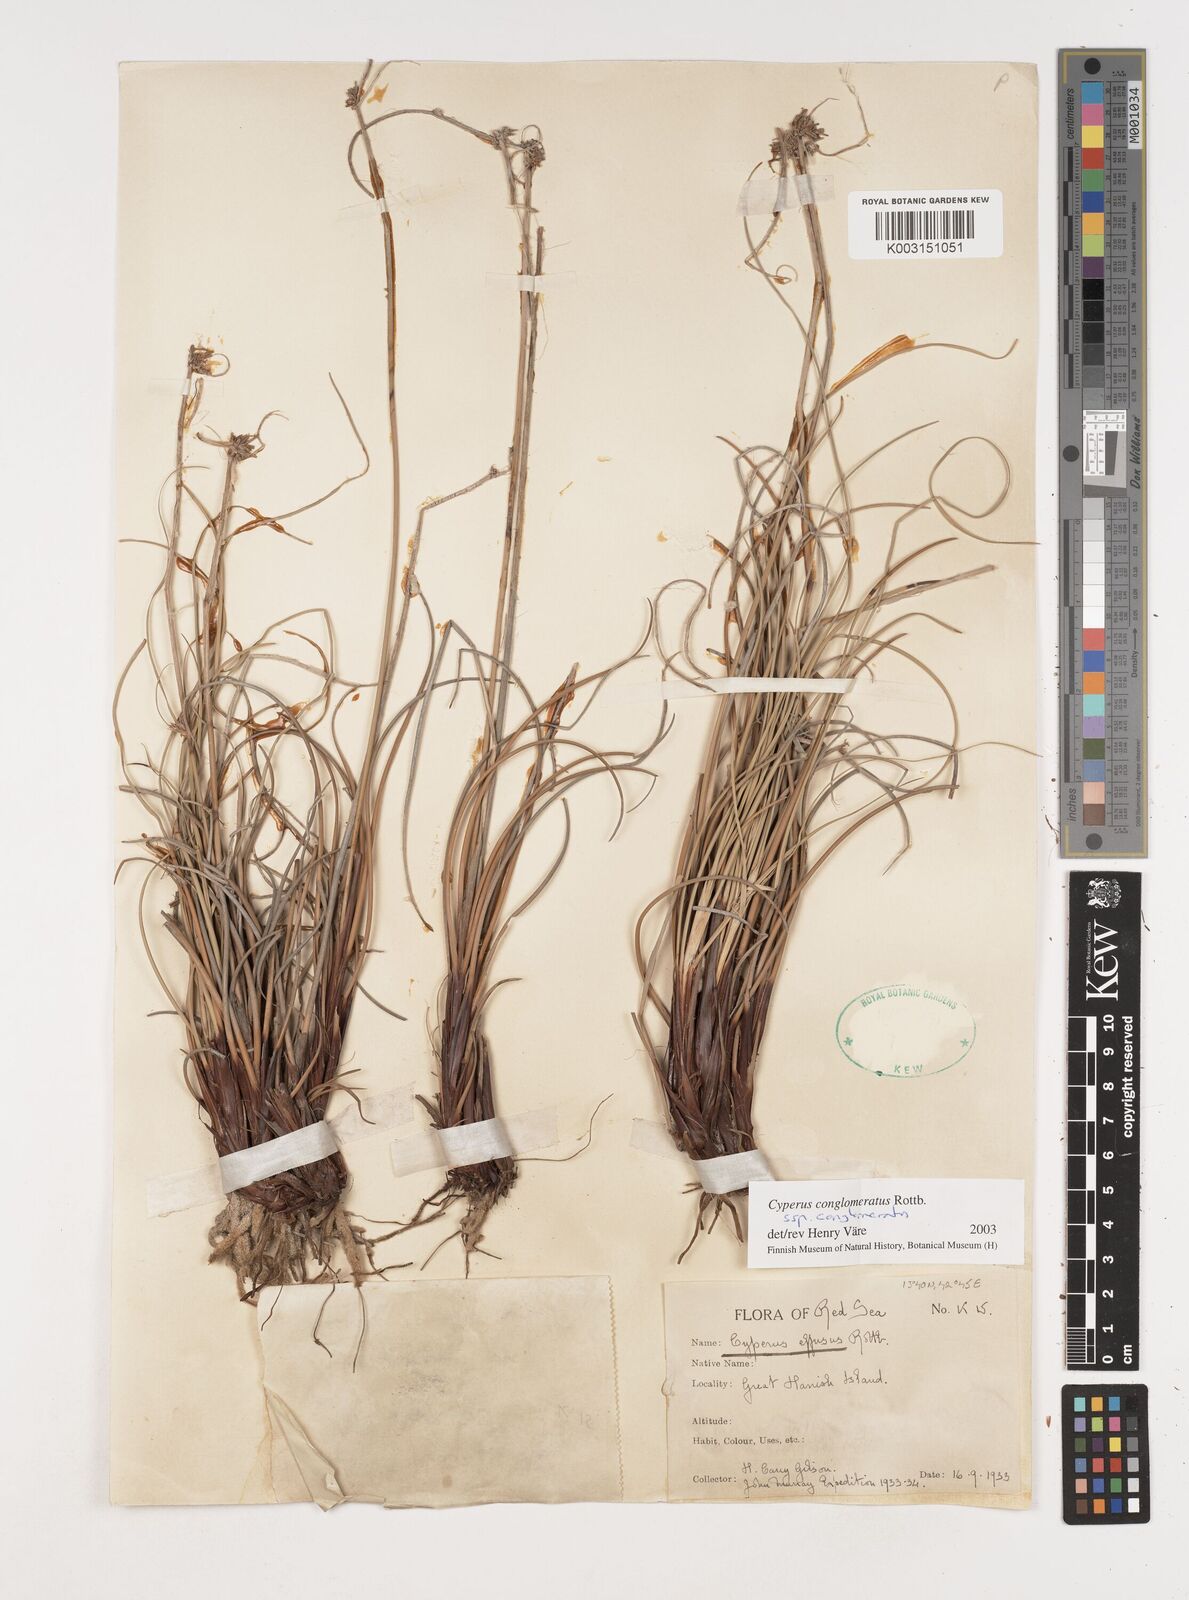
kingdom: Plantae
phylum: Tracheophyta
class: Liliopsida
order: Poales
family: Cyperaceae
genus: Cyperus
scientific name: Cyperus conglomeratus
